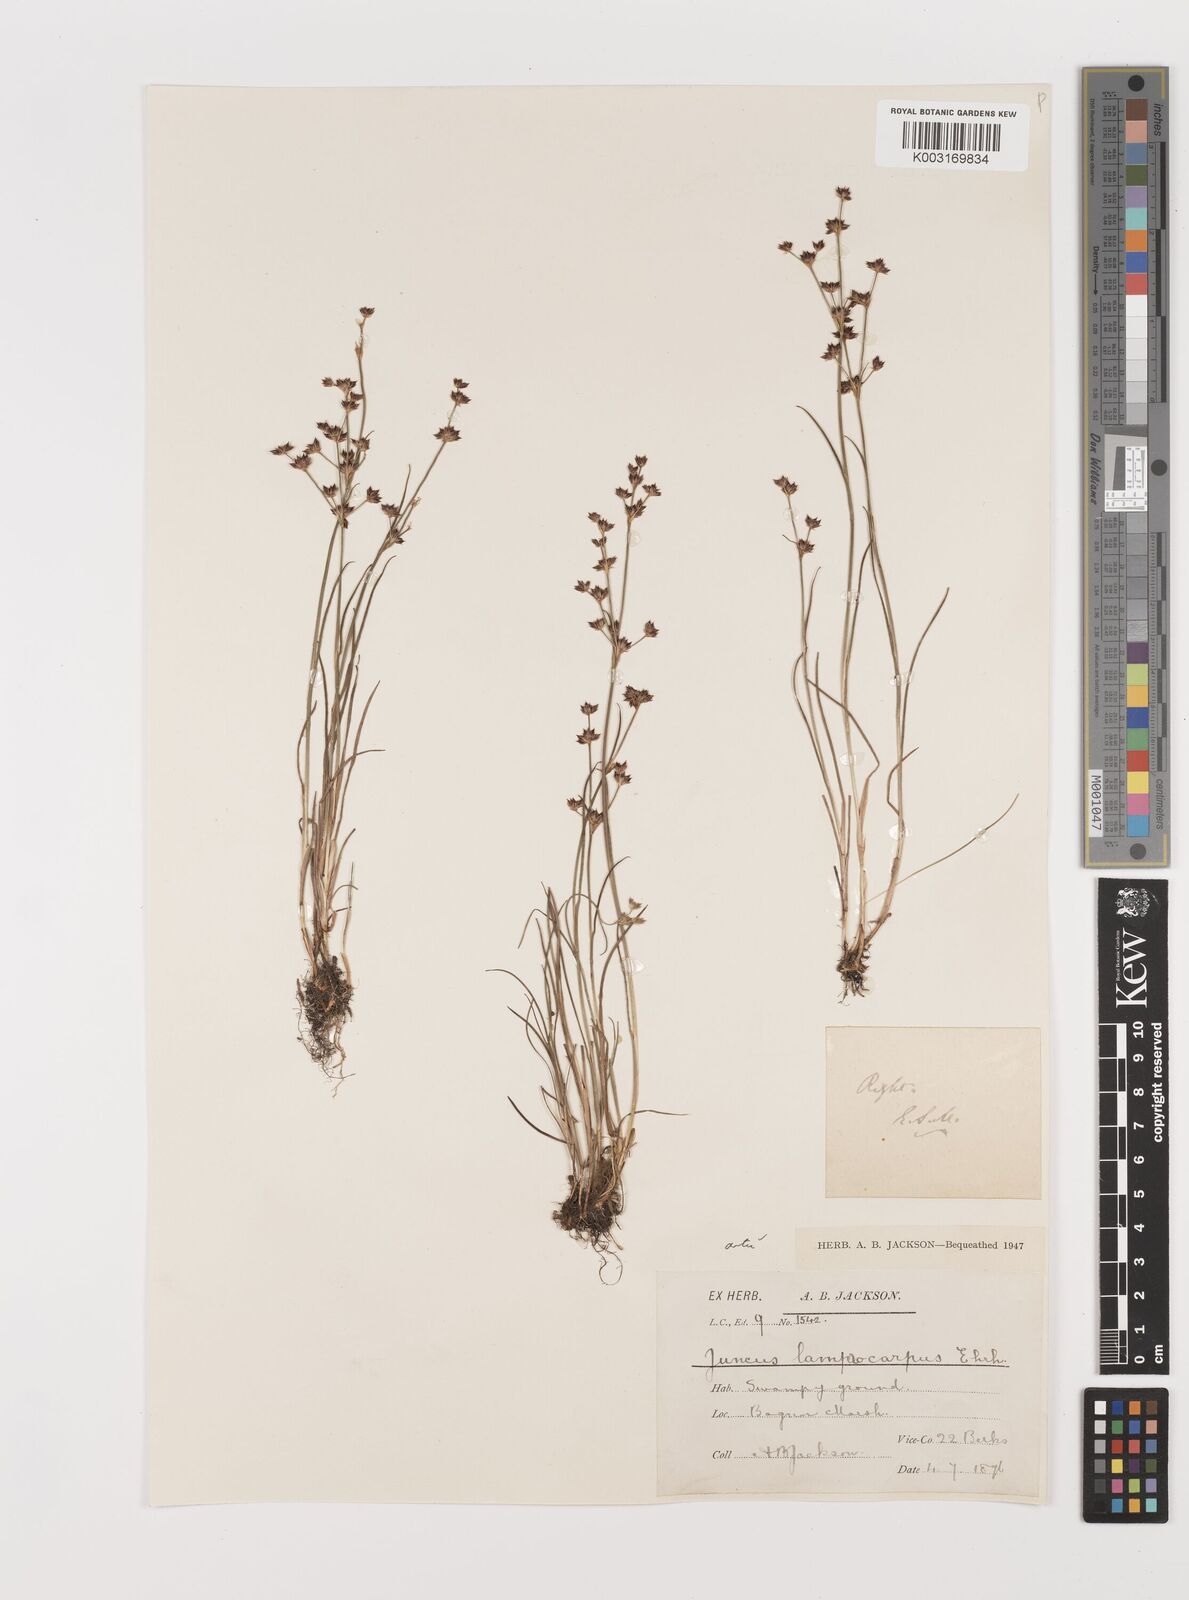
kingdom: Plantae
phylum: Tracheophyta
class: Liliopsida
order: Poales
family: Juncaceae
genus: Juncus
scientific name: Juncus articulatus
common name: Jointed rush
